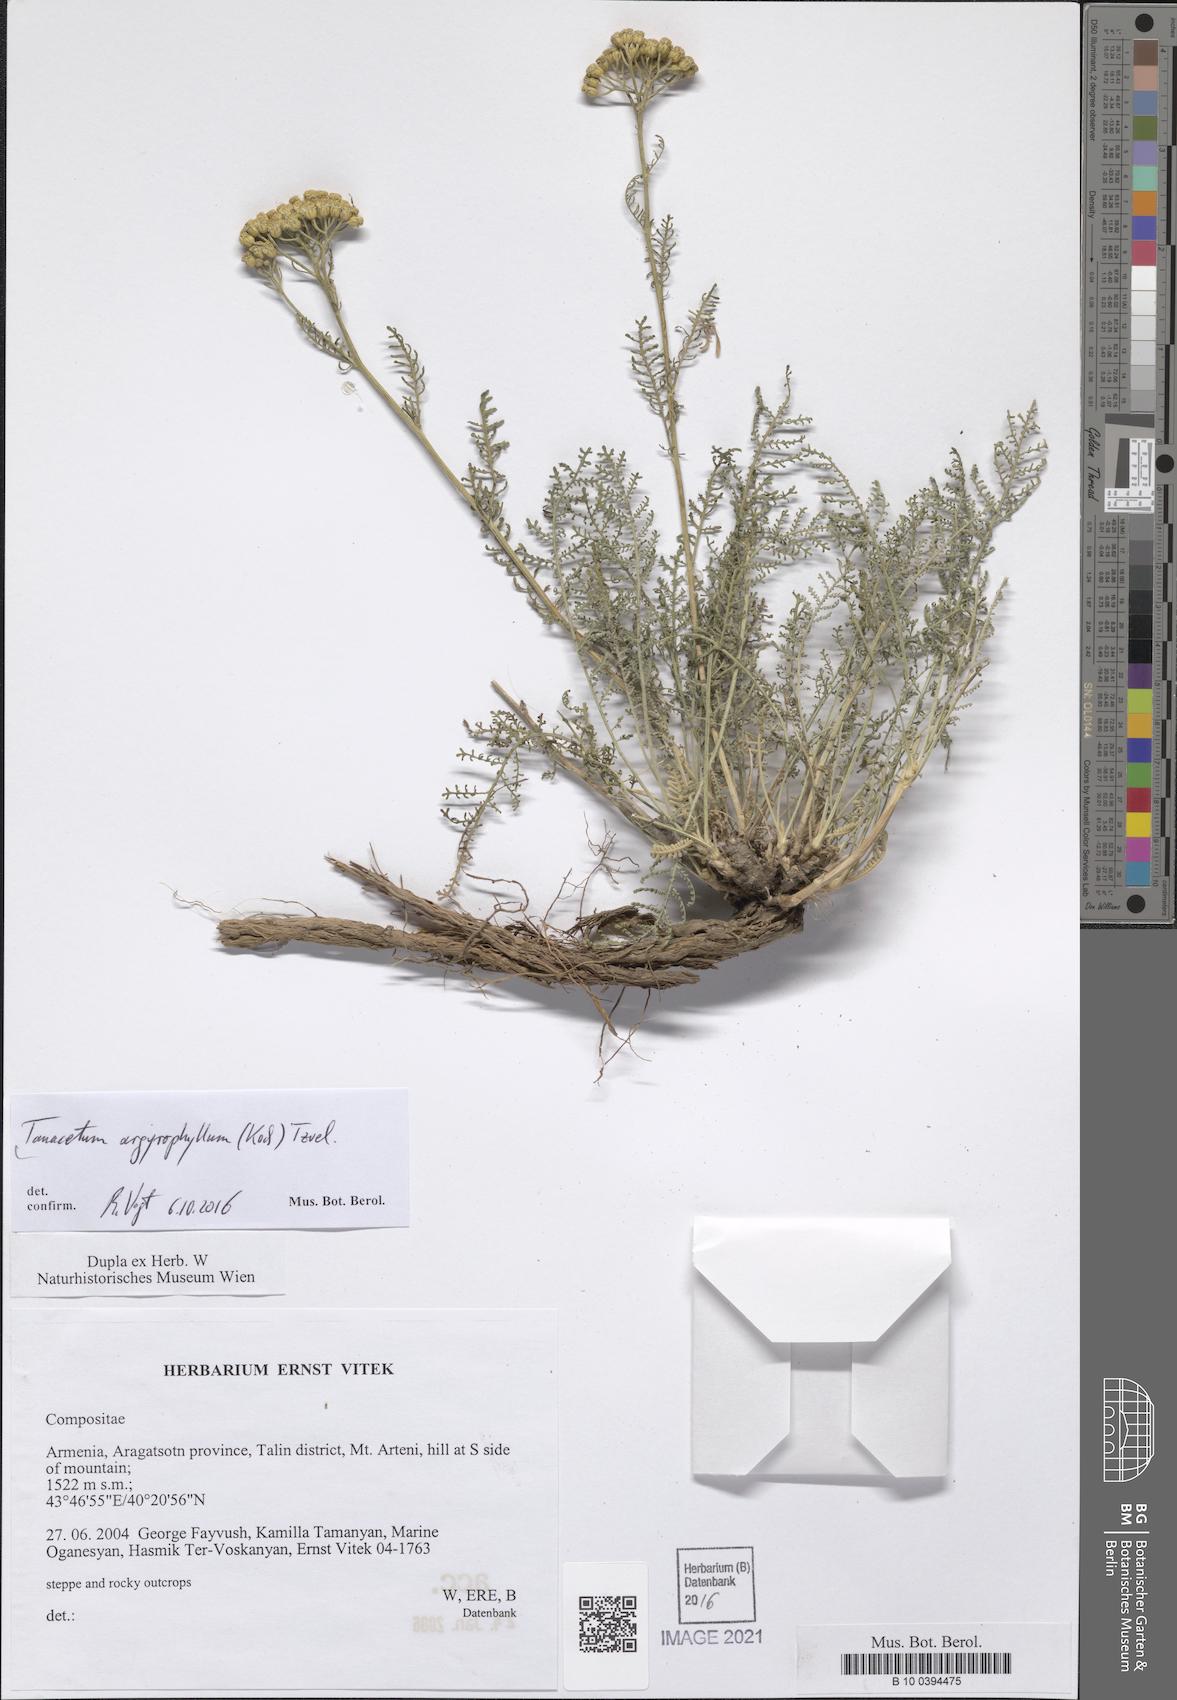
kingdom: Plantae
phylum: Tracheophyta
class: Magnoliopsida
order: Asterales
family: Asteraceae
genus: Tanacetum
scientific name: Tanacetum polycephalum
